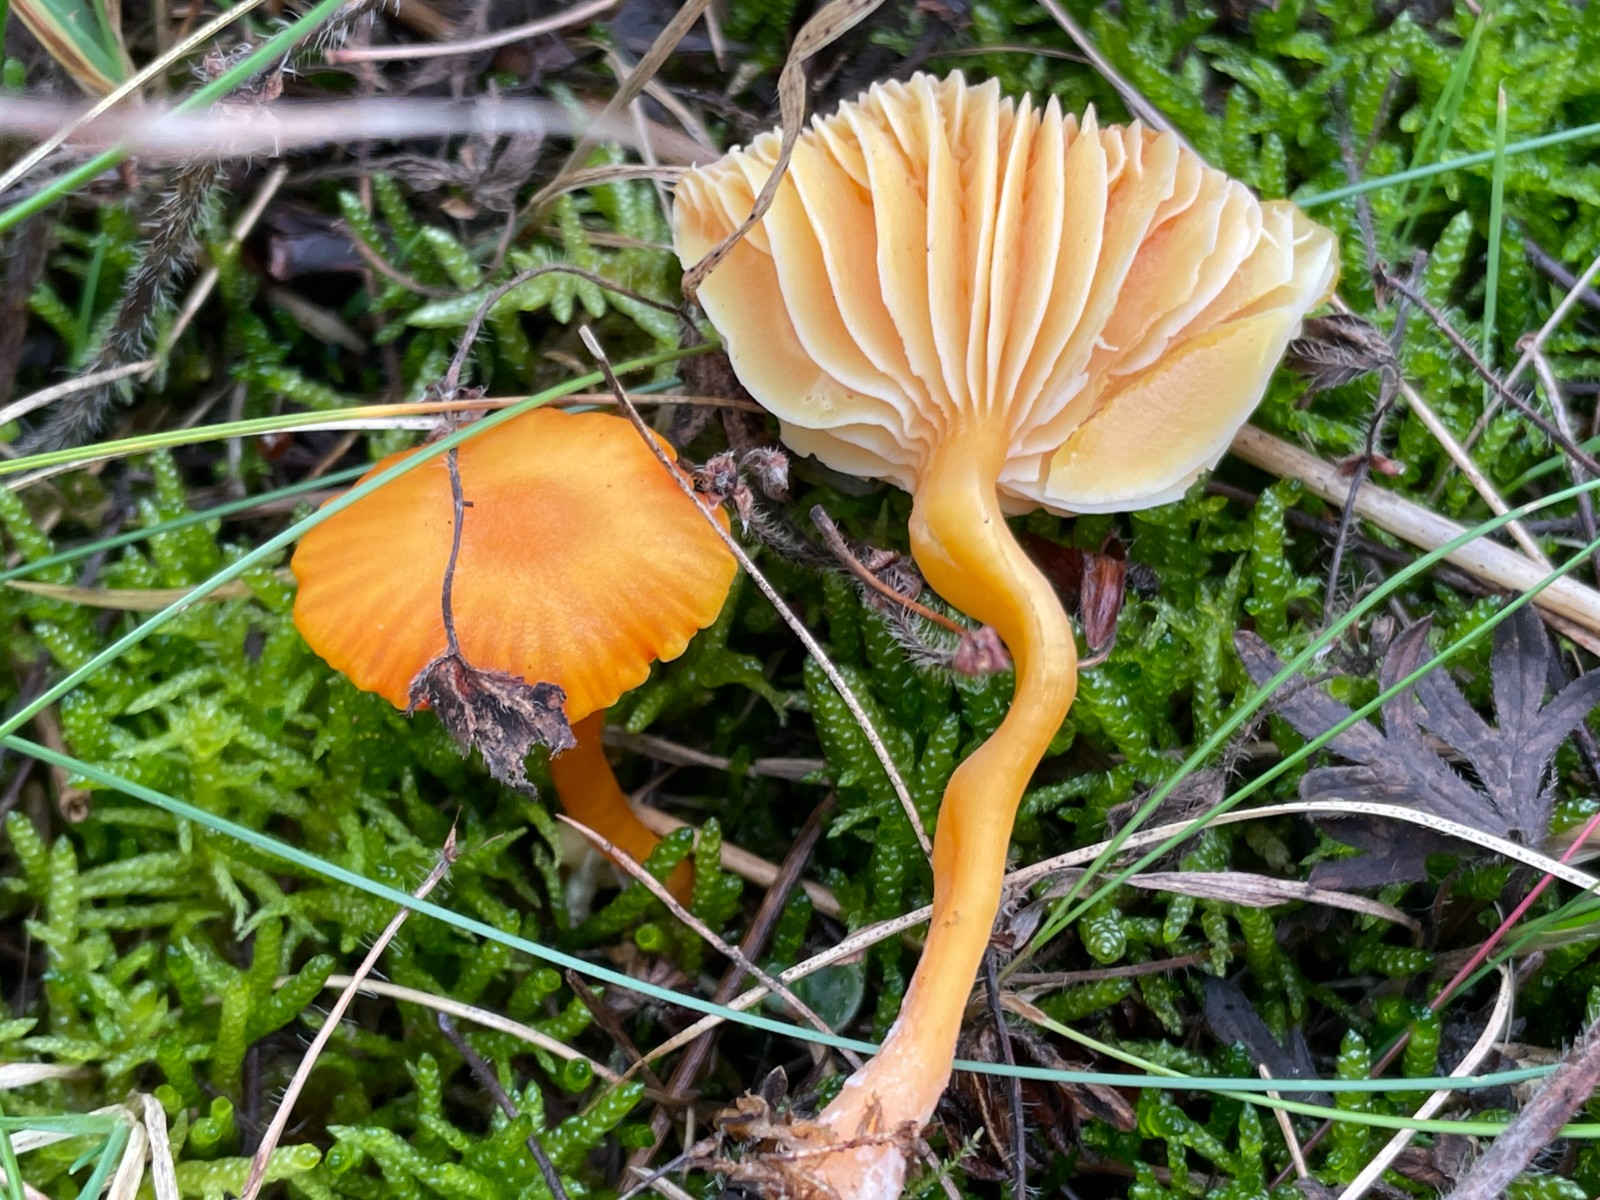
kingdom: Fungi
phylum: Basidiomycota
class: Agaricomycetes
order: Agaricales
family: Hygrophoraceae
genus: Hygrocybe
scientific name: Hygrocybe reidii
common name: honning-vokshat
